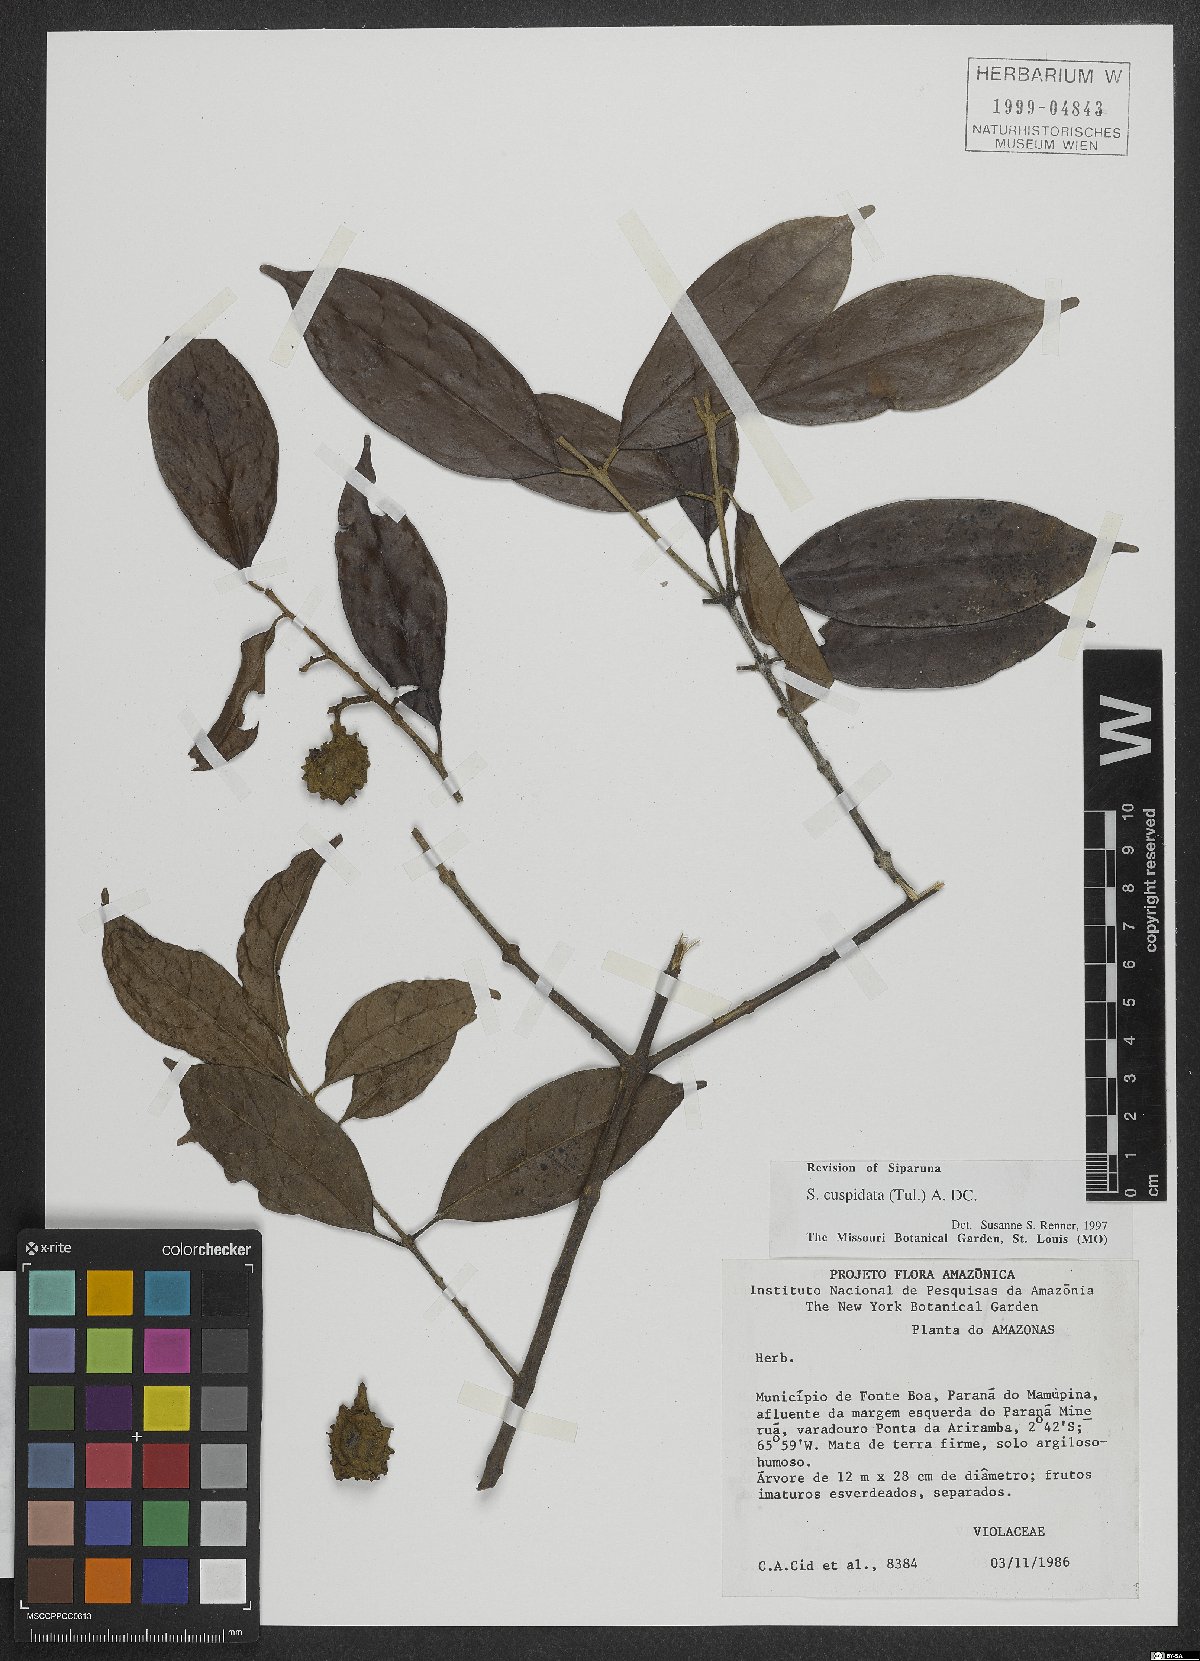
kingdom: Plantae
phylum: Tracheophyta
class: Magnoliopsida
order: Laurales
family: Siparunaceae
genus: Siparuna
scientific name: Siparuna cuspidata
